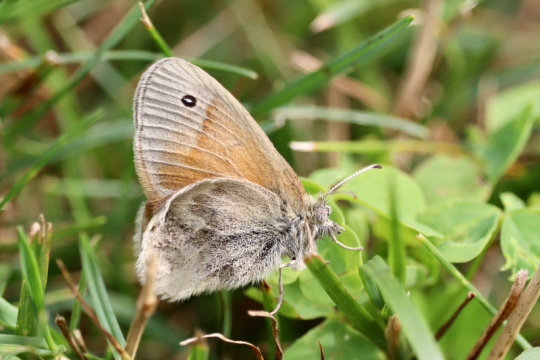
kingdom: Animalia
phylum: Arthropoda
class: Insecta
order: Lepidoptera
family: Nymphalidae
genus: Coenonympha
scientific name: Coenonympha california
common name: California Ringlet
